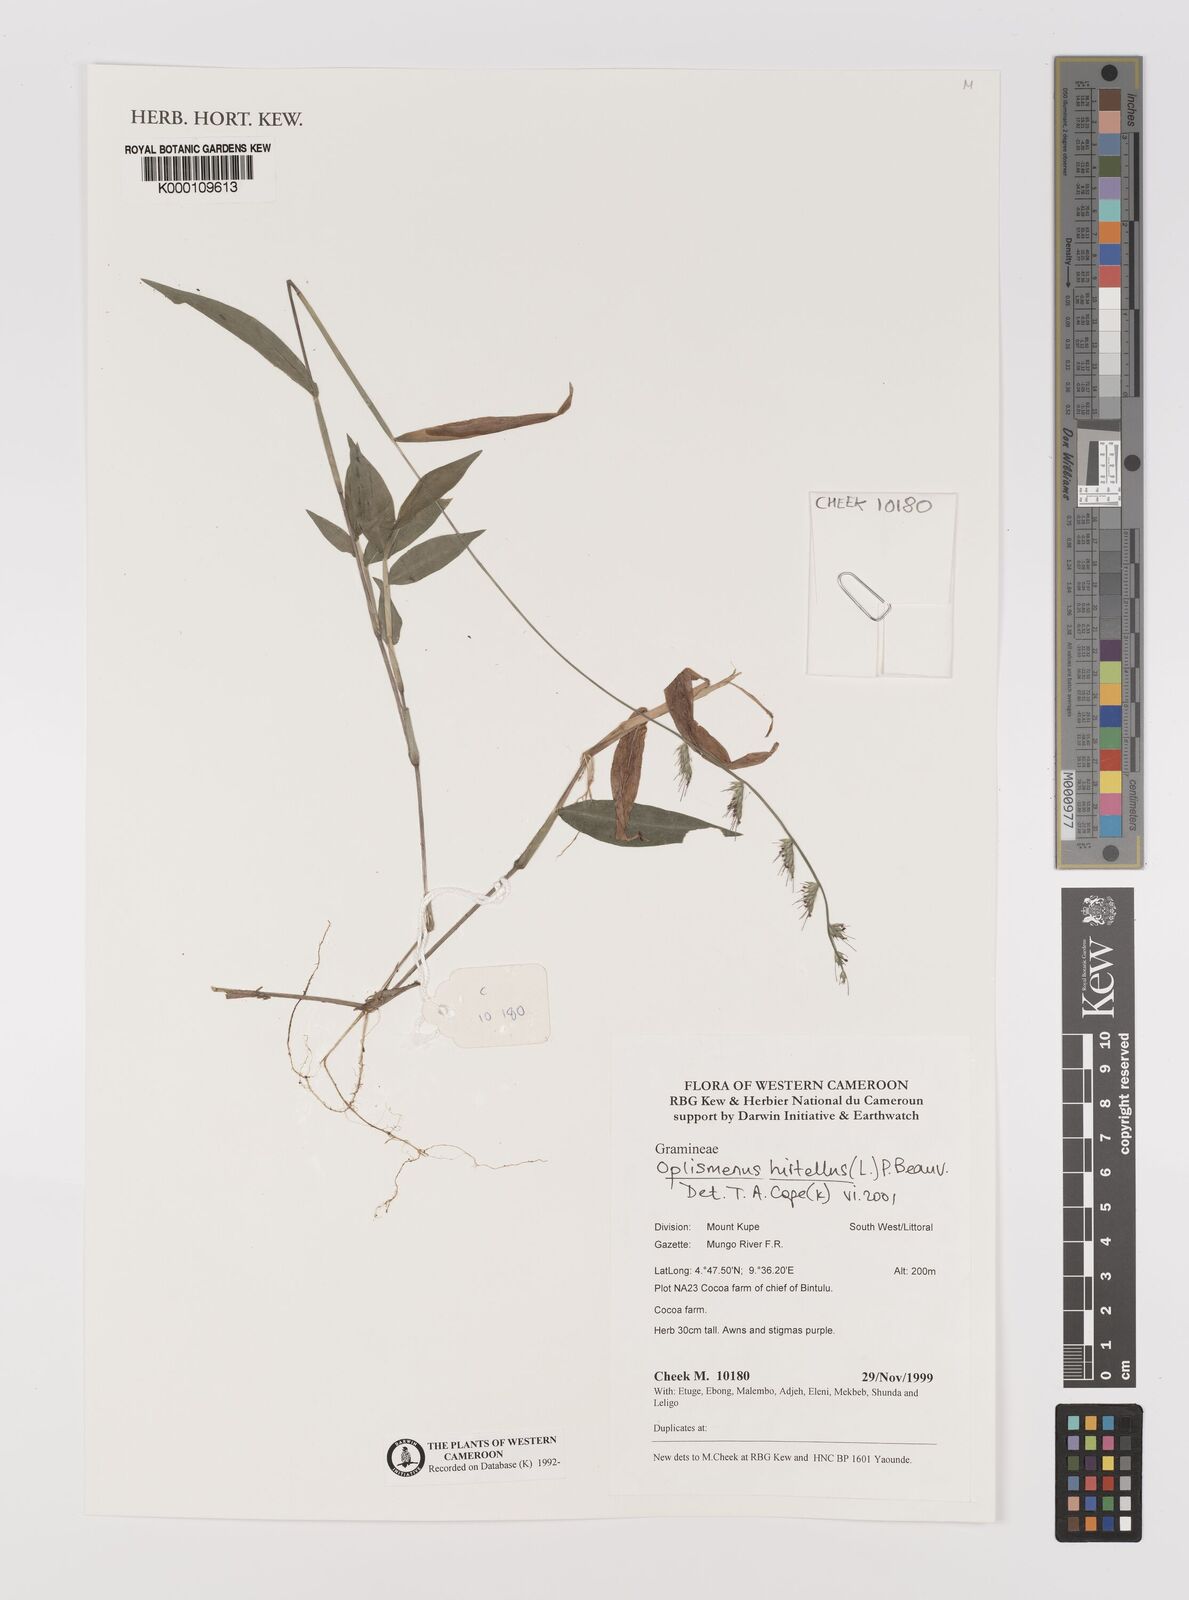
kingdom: Plantae
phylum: Tracheophyta
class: Liliopsida
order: Poales
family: Poaceae
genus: Oplismenus
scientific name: Oplismenus hirtellus
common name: Basketgrass
